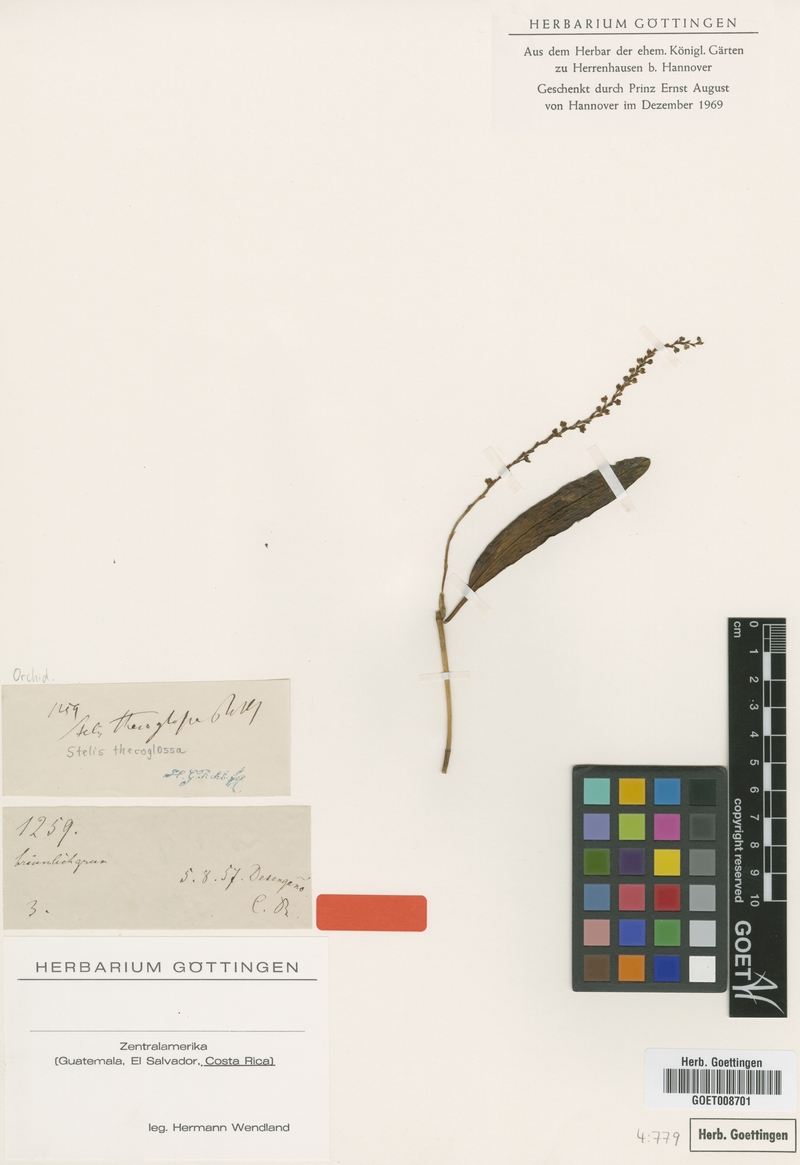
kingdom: Plantae
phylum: Tracheophyta
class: Liliopsida
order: Asparagales
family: Orchidaceae
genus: Stelis
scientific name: Stelis thecoglossa
